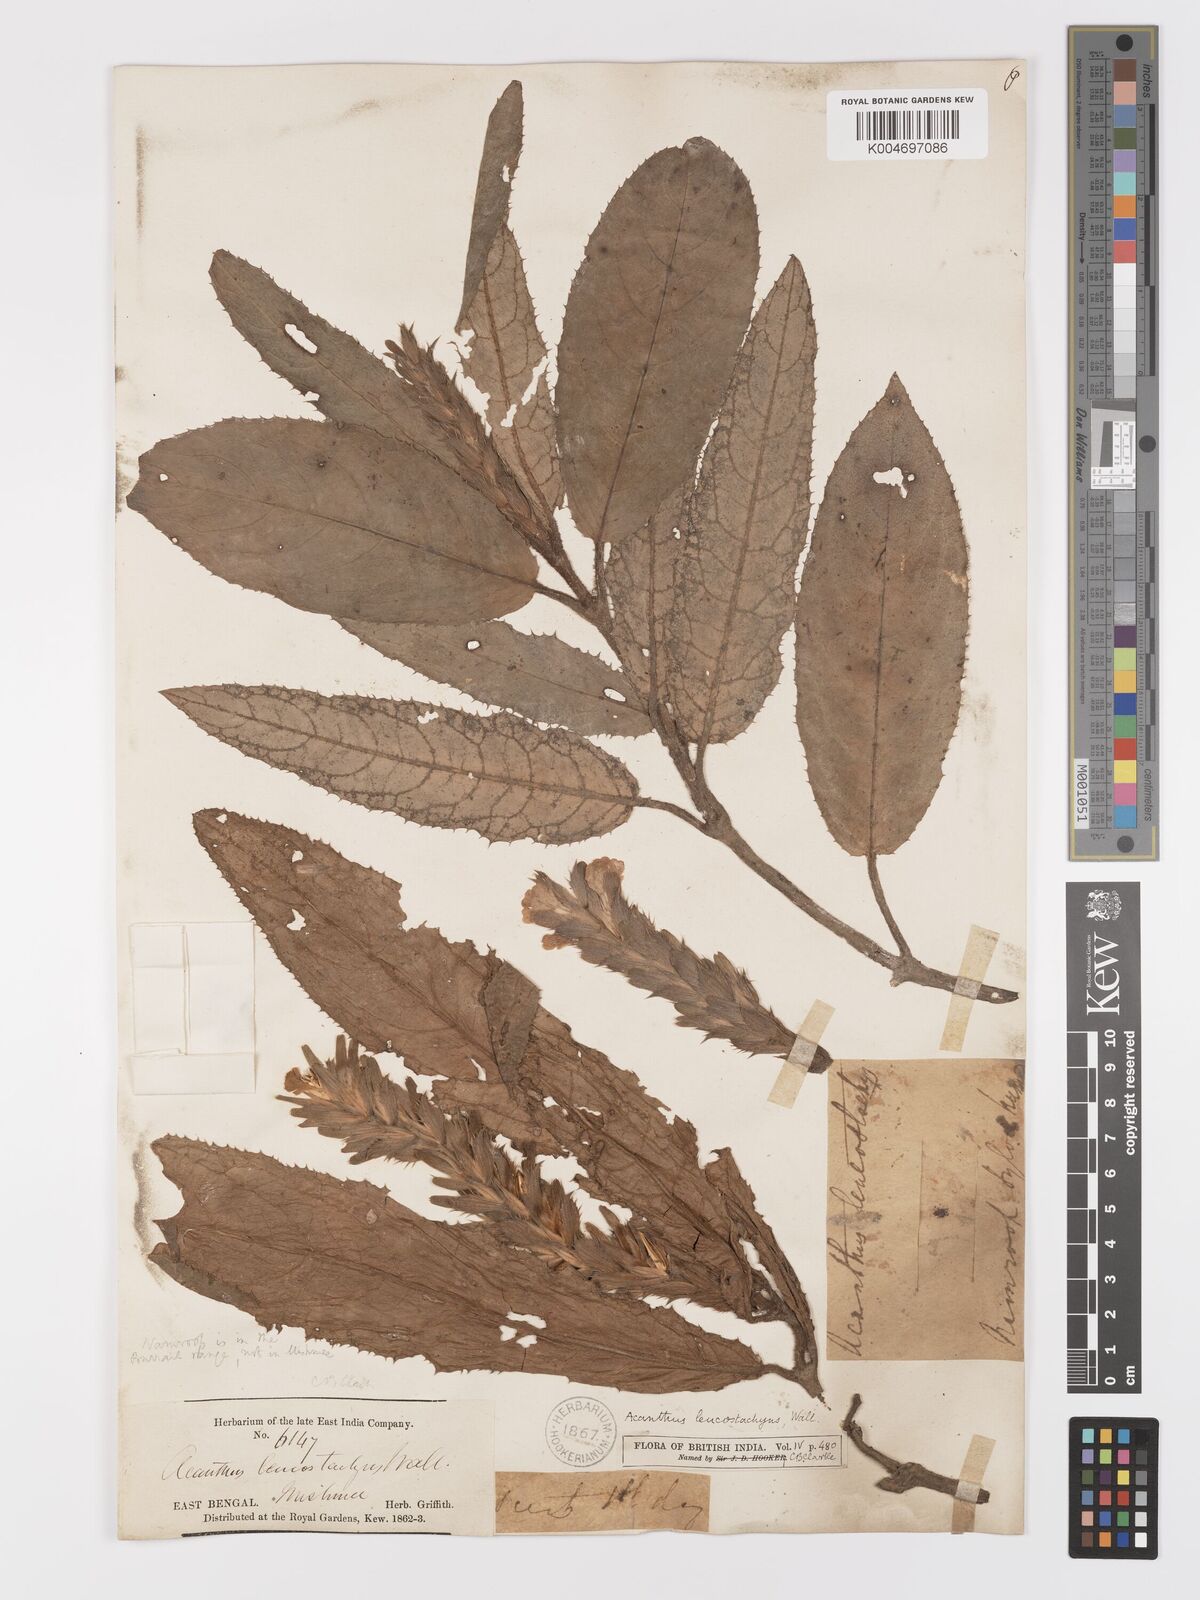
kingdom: Plantae
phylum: Tracheophyta
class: Magnoliopsida
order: Lamiales
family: Acanthaceae
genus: Acanthus
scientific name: Acanthus leucostachyus
